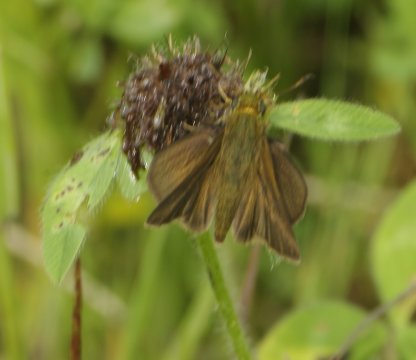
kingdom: Animalia
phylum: Arthropoda
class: Insecta
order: Lepidoptera
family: Hesperiidae
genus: Euphyes
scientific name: Euphyes vestris
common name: Dun Skipper
